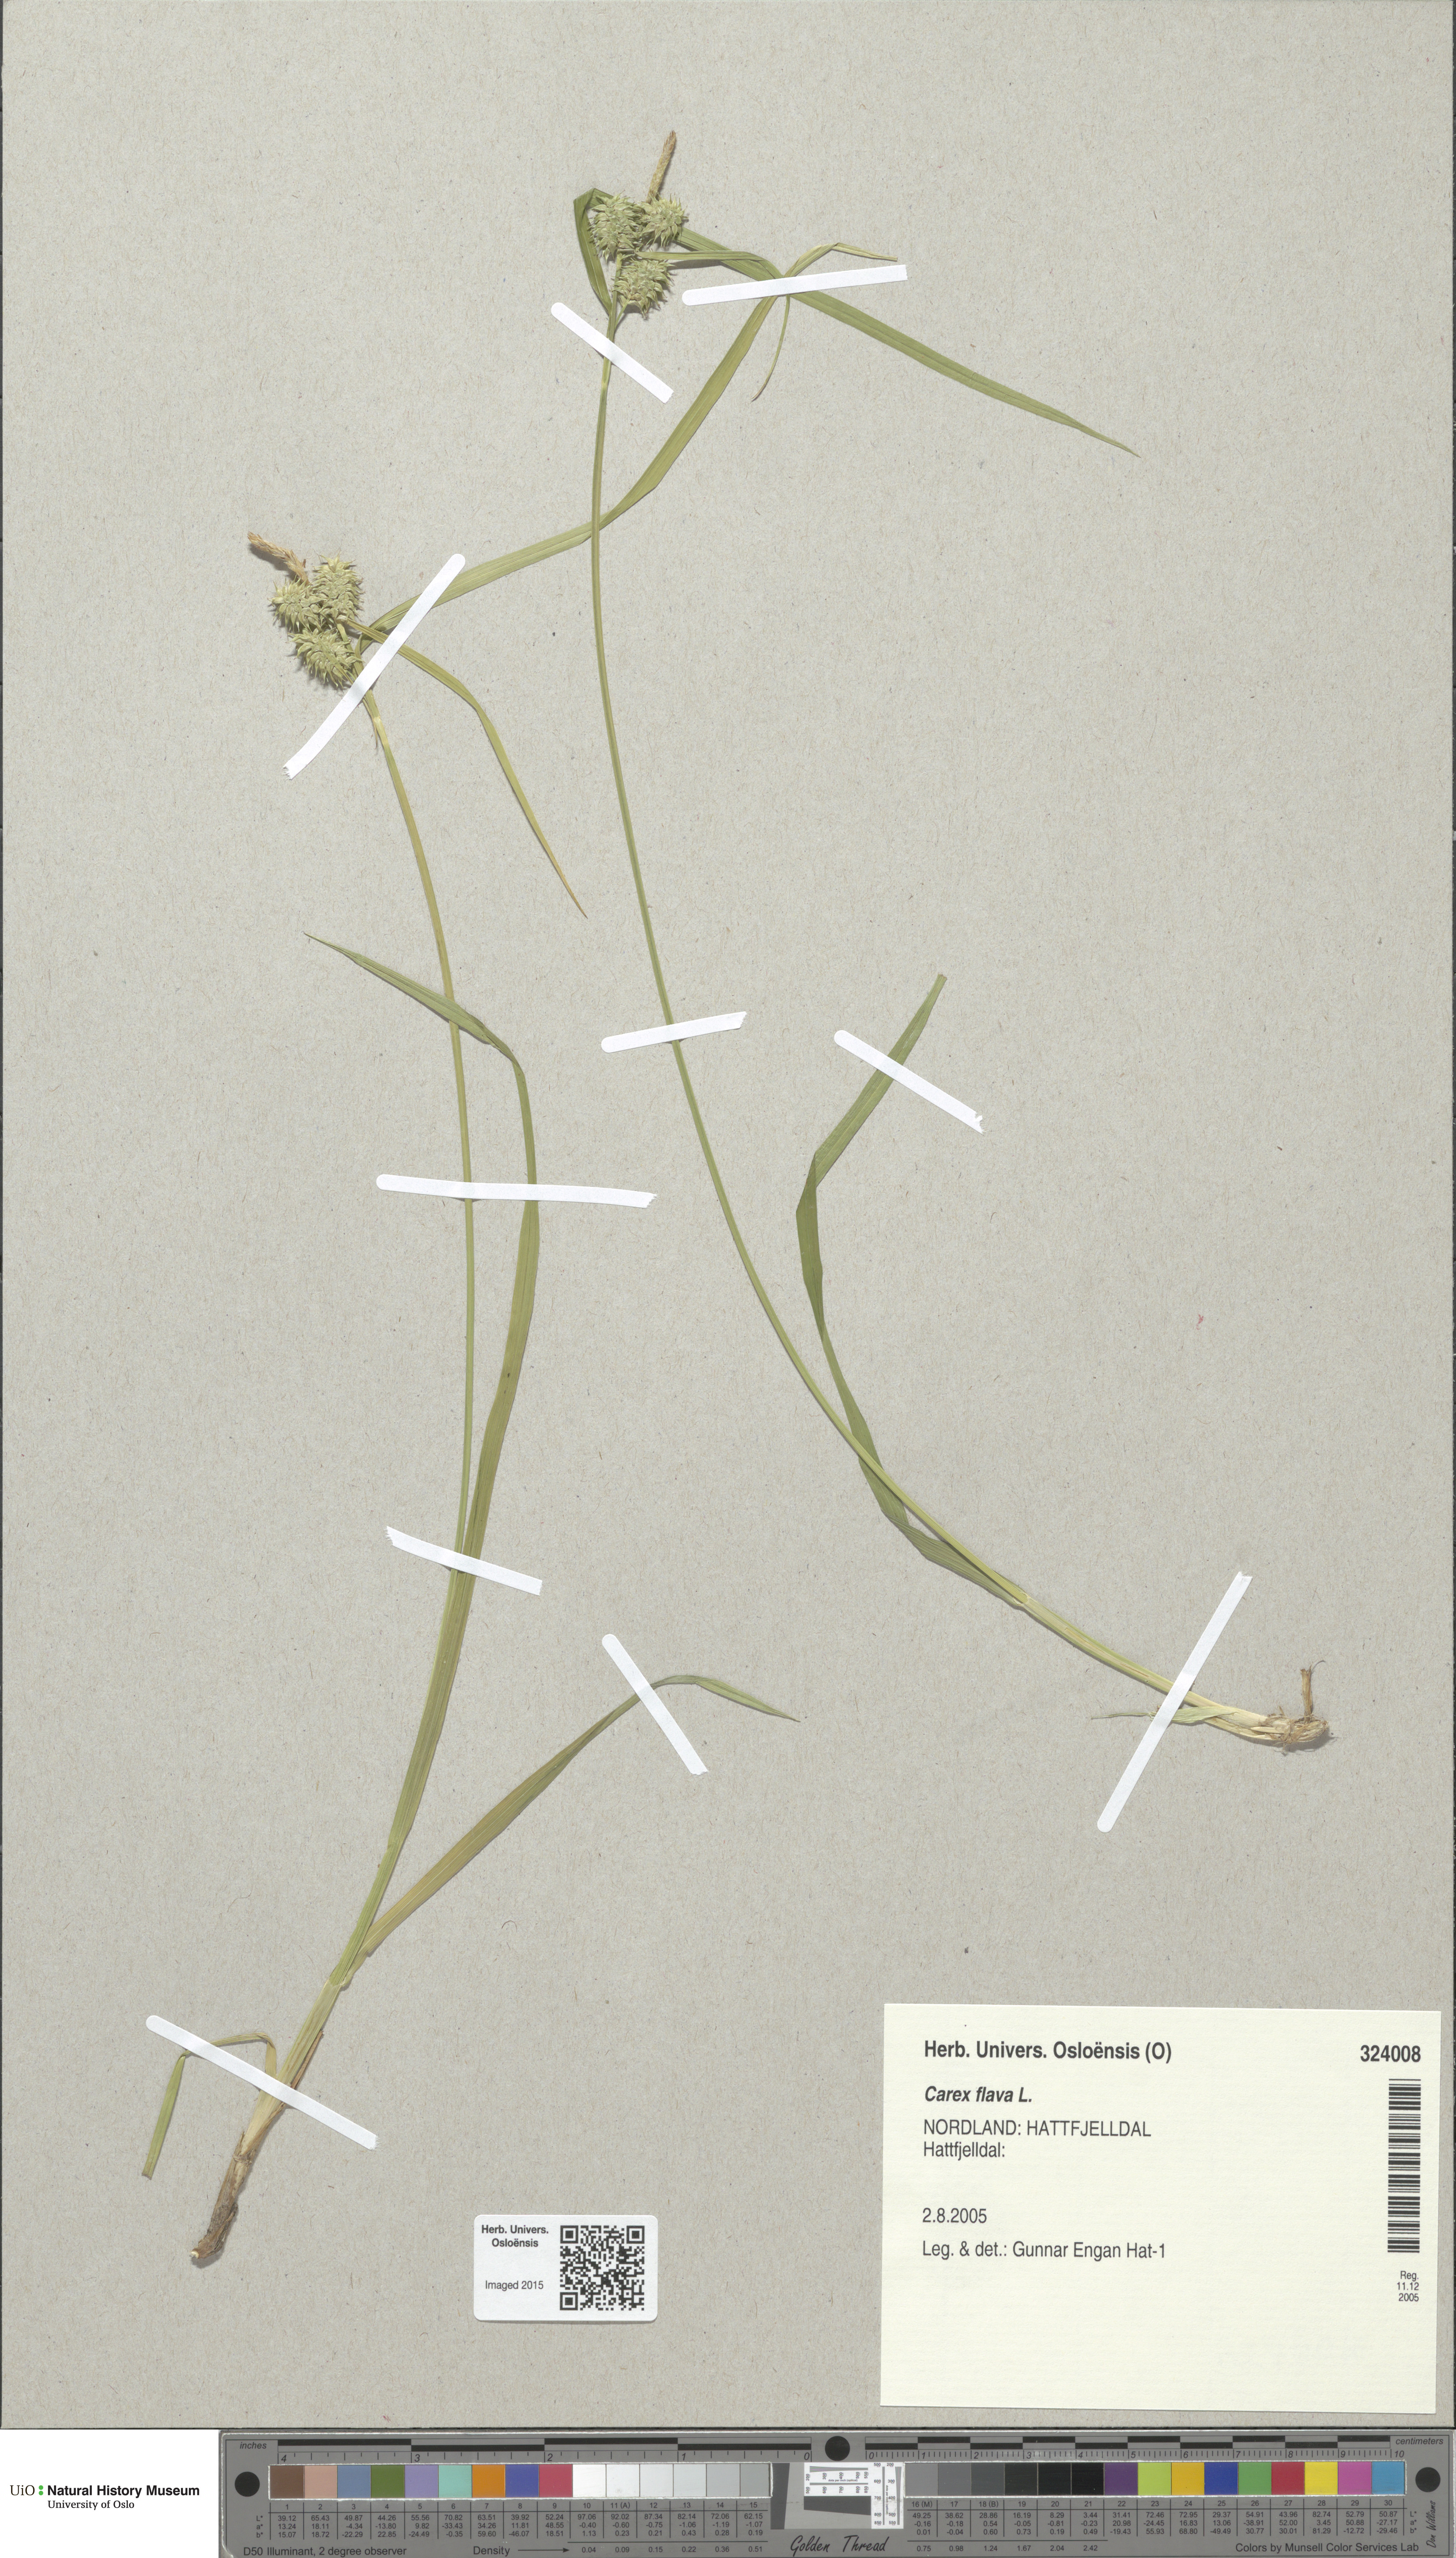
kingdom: Plantae
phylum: Tracheophyta
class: Liliopsida
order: Poales
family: Cyperaceae
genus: Carex
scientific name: Carex flava
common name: Large yellow-sedge
